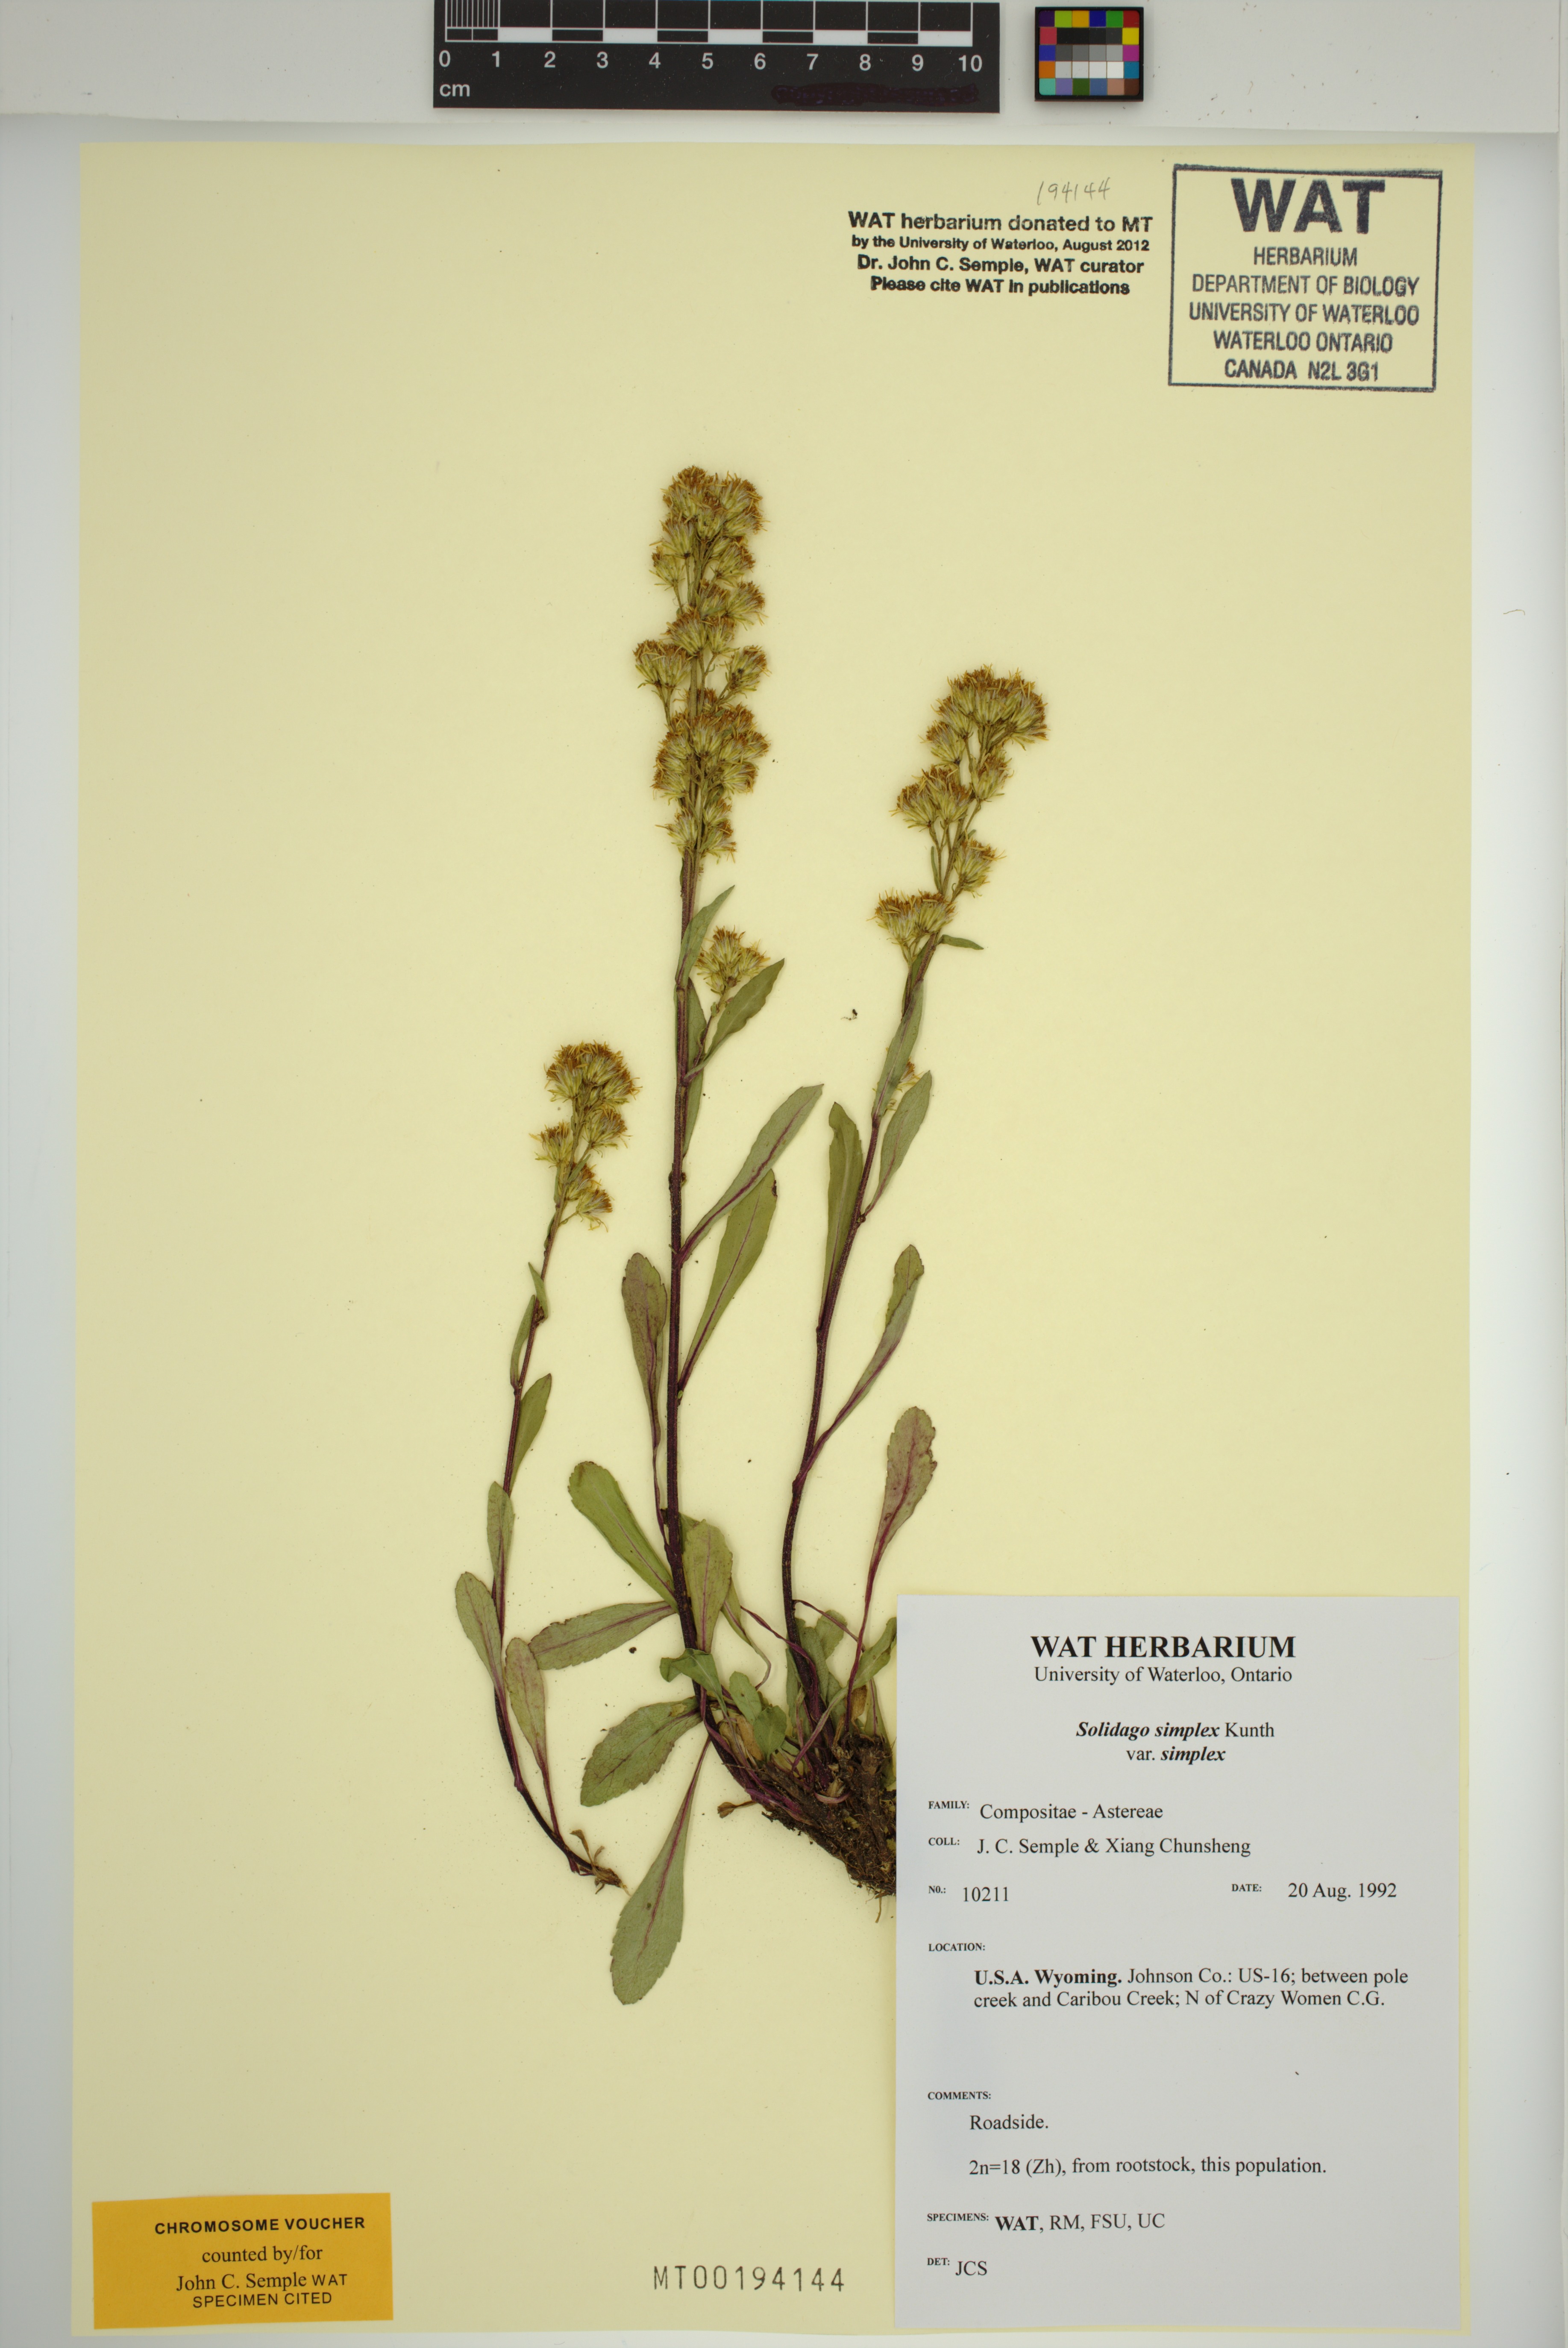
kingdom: Plantae
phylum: Tracheophyta
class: Magnoliopsida
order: Asterales
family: Asteraceae
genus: Solidago
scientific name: Solidago simplex
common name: Sticky goldenrod
